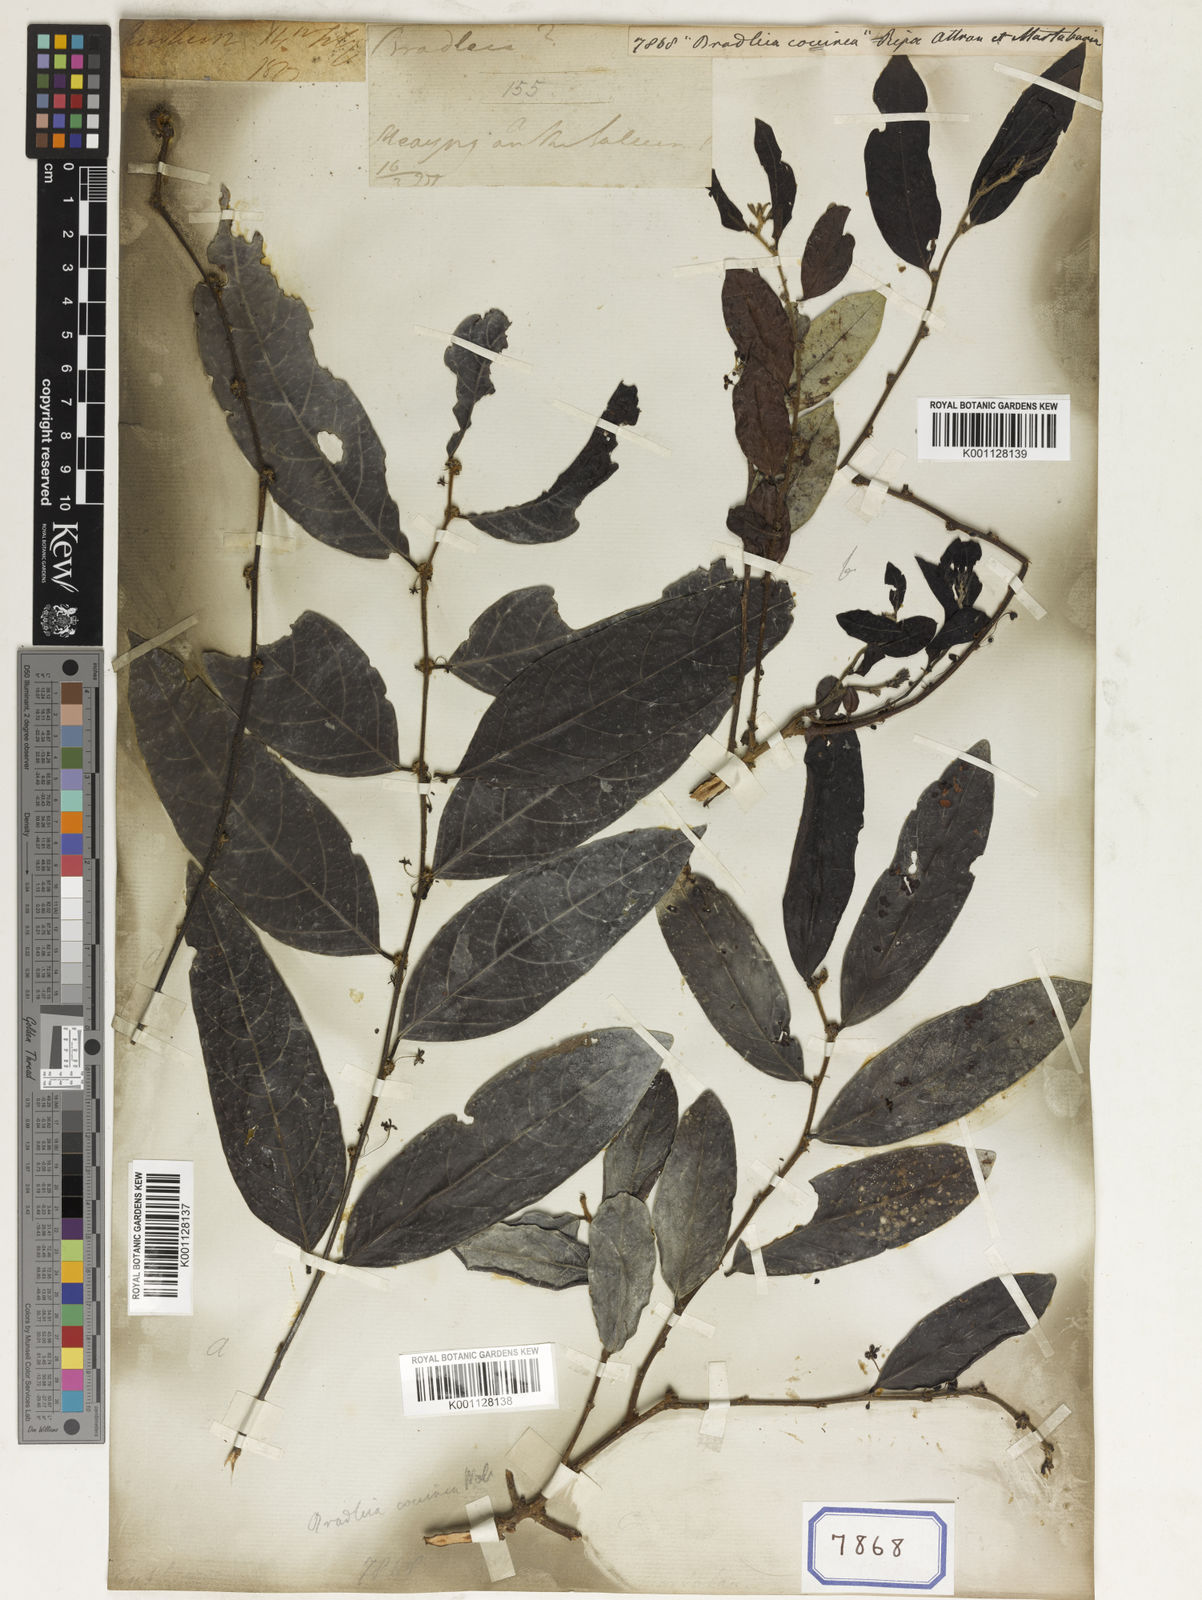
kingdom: Plantae
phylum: Tracheophyta
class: Magnoliopsida
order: Malpighiales
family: Euphorbiaceae
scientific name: Euphorbiaceae
